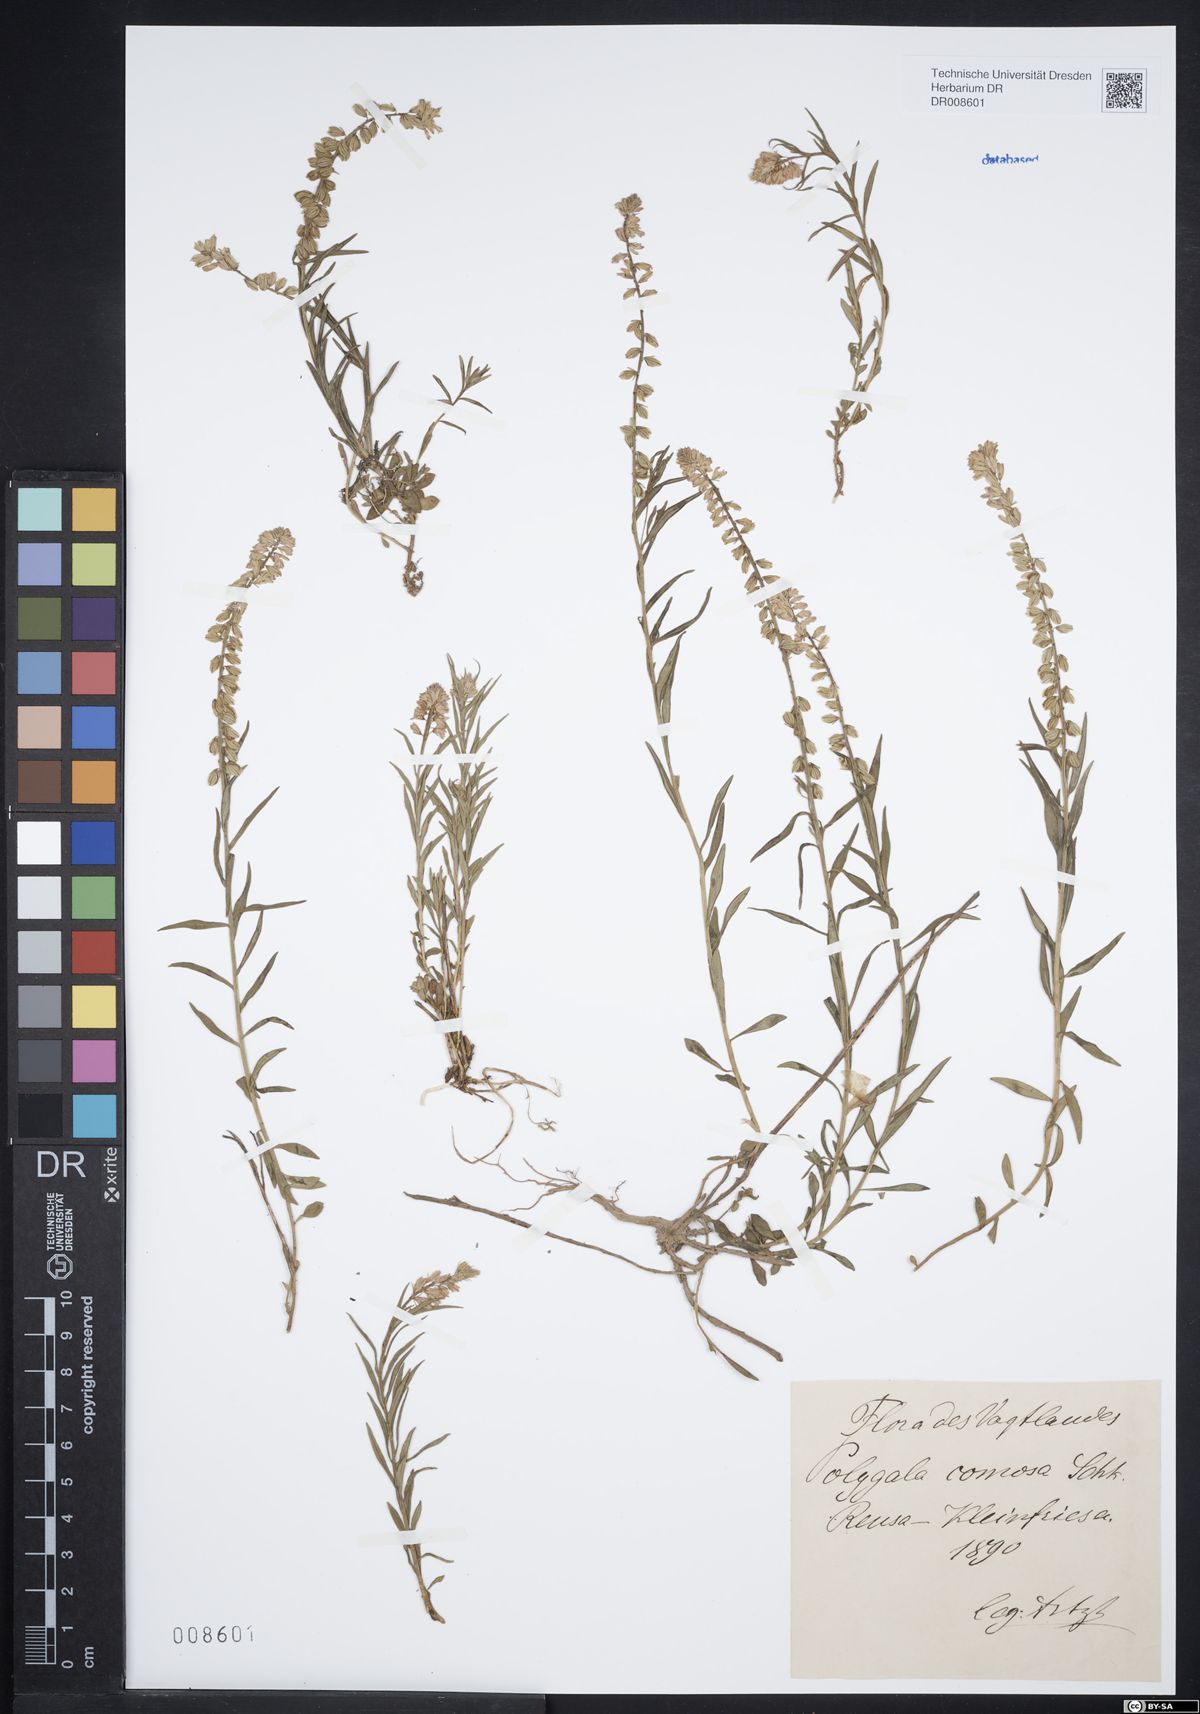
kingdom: Plantae
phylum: Tracheophyta
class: Magnoliopsida
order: Fabales
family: Polygalaceae
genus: Polygala
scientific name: Polygala comosa
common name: Tufted milkwort
